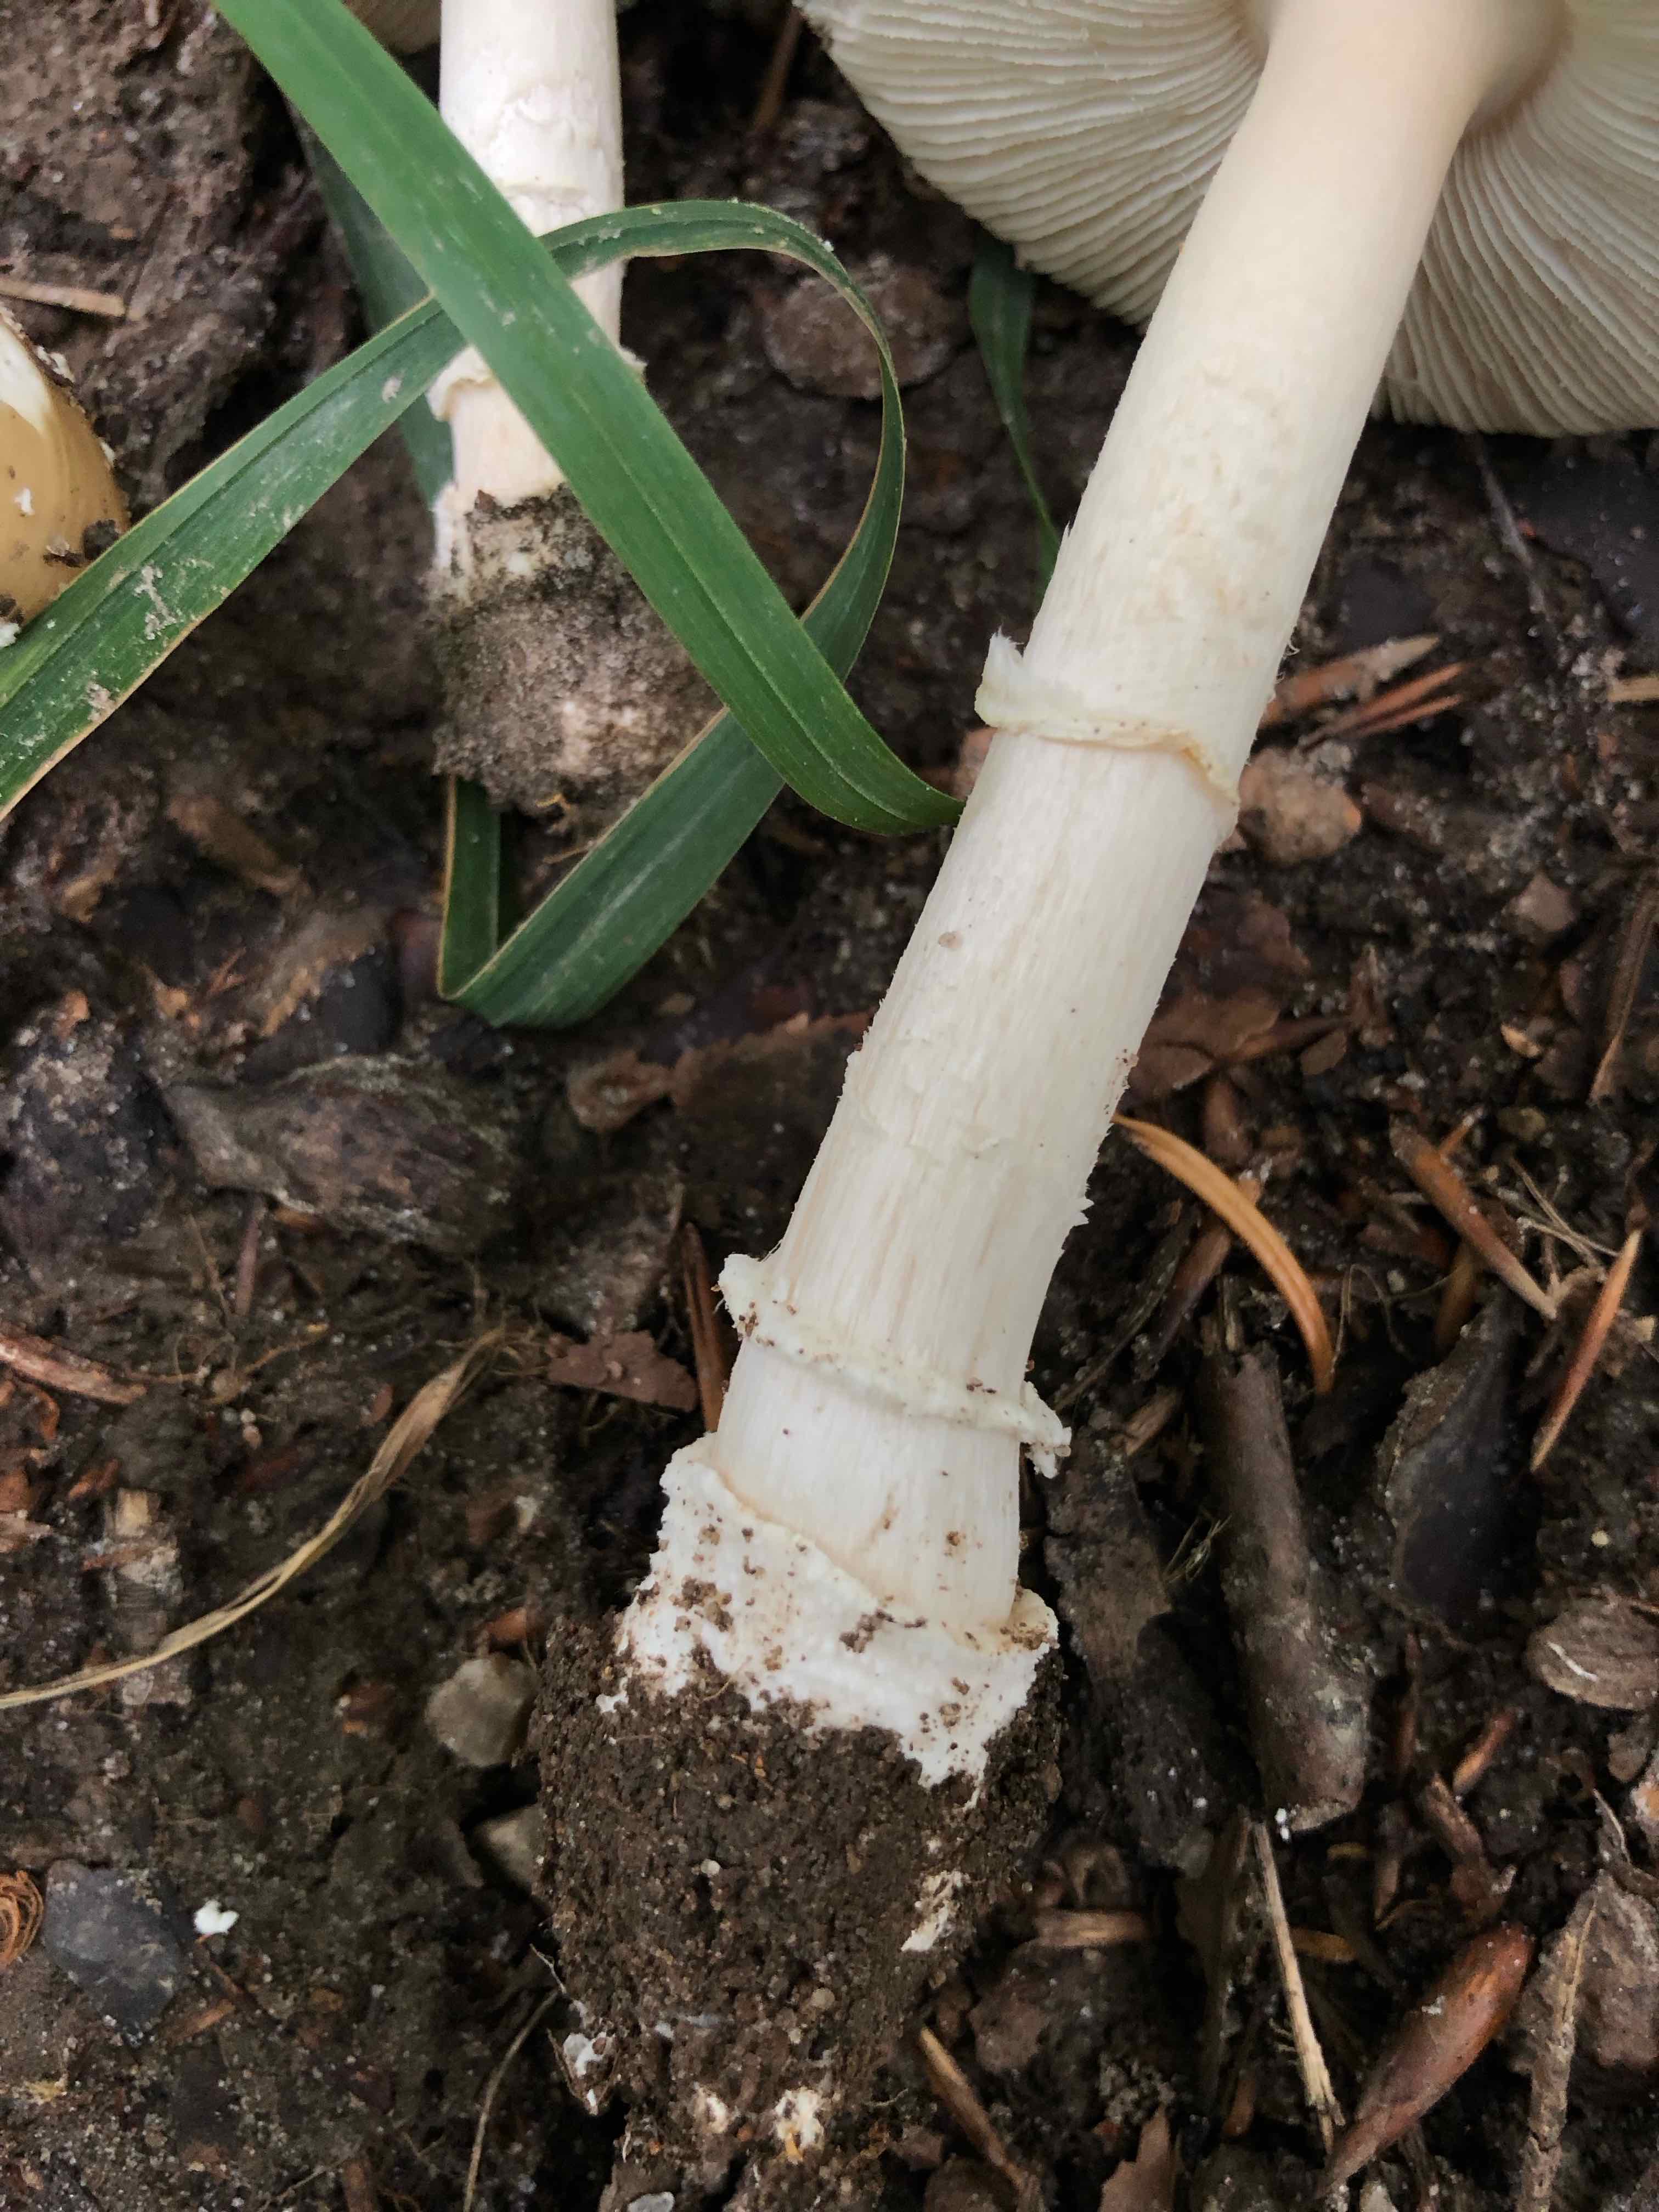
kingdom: Fungi
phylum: Basidiomycota
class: Agaricomycetes
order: Agaricales
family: Amanitaceae
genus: Amanita
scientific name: Amanita pantherina
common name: panter-fluesvamp
